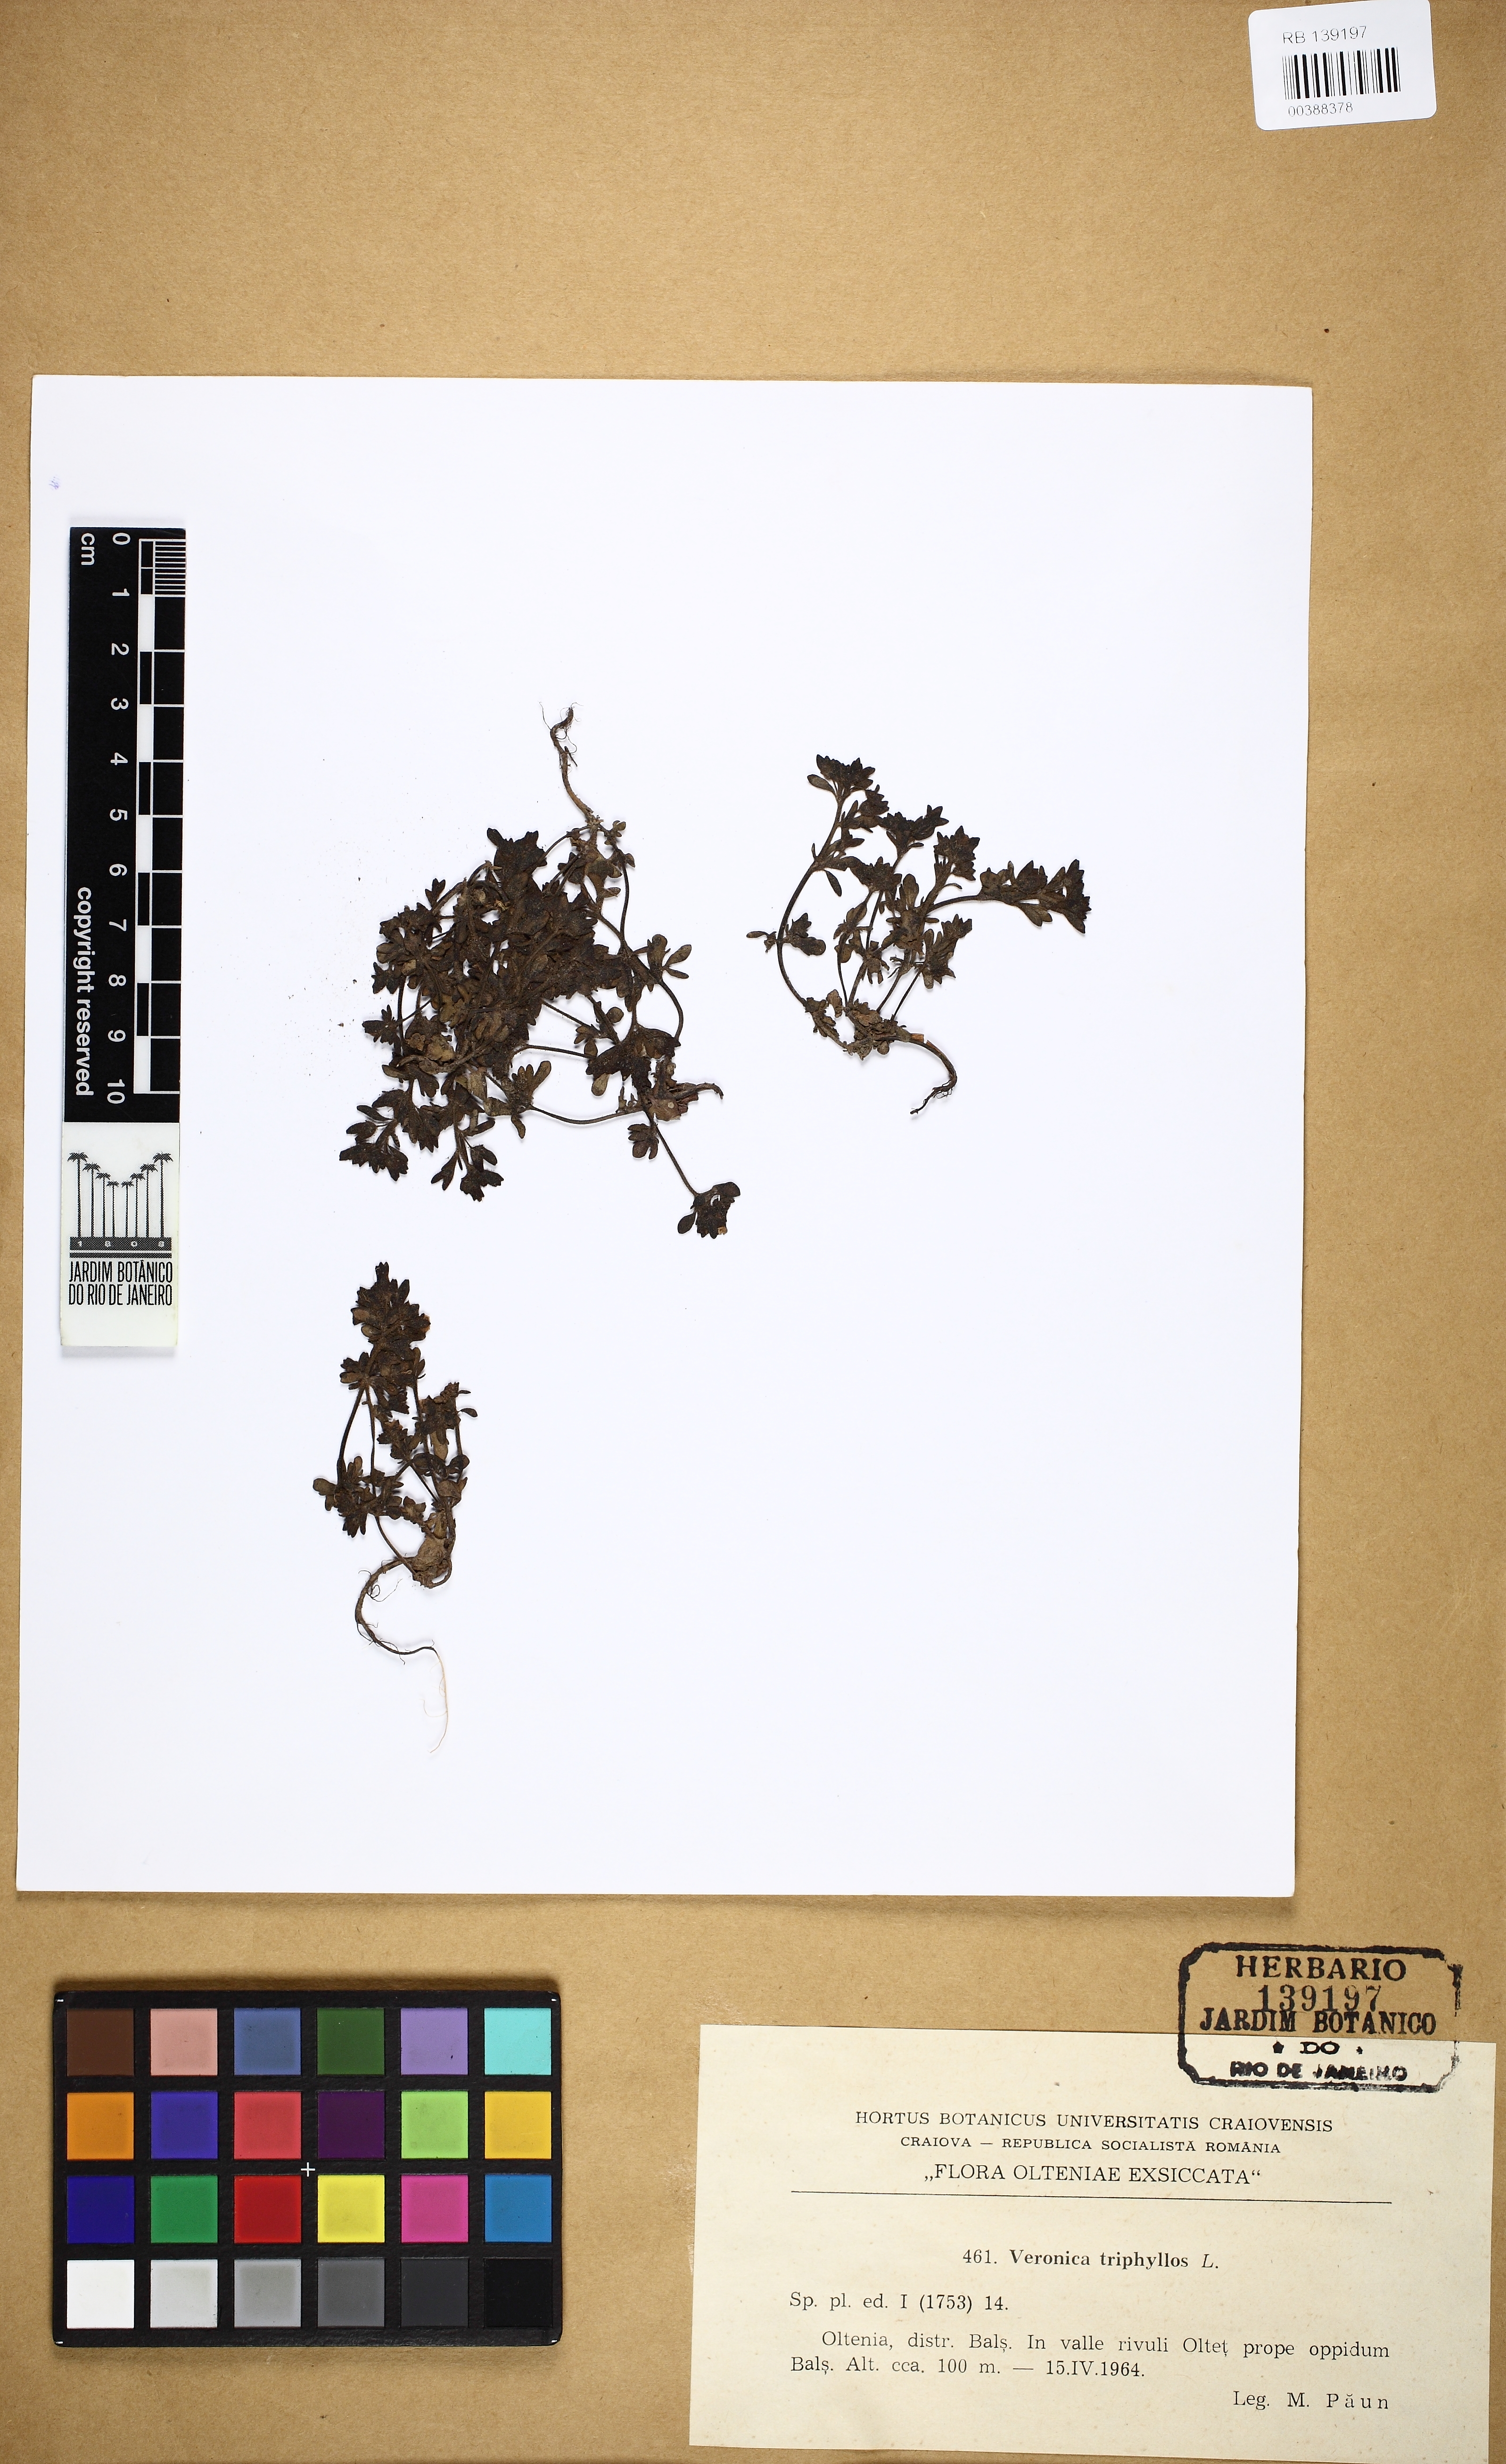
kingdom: Plantae
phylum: Tracheophyta
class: Magnoliopsida
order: Lamiales
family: Plantaginaceae
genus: Veronica
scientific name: Veronica triphyllos
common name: Fingered speedwell
